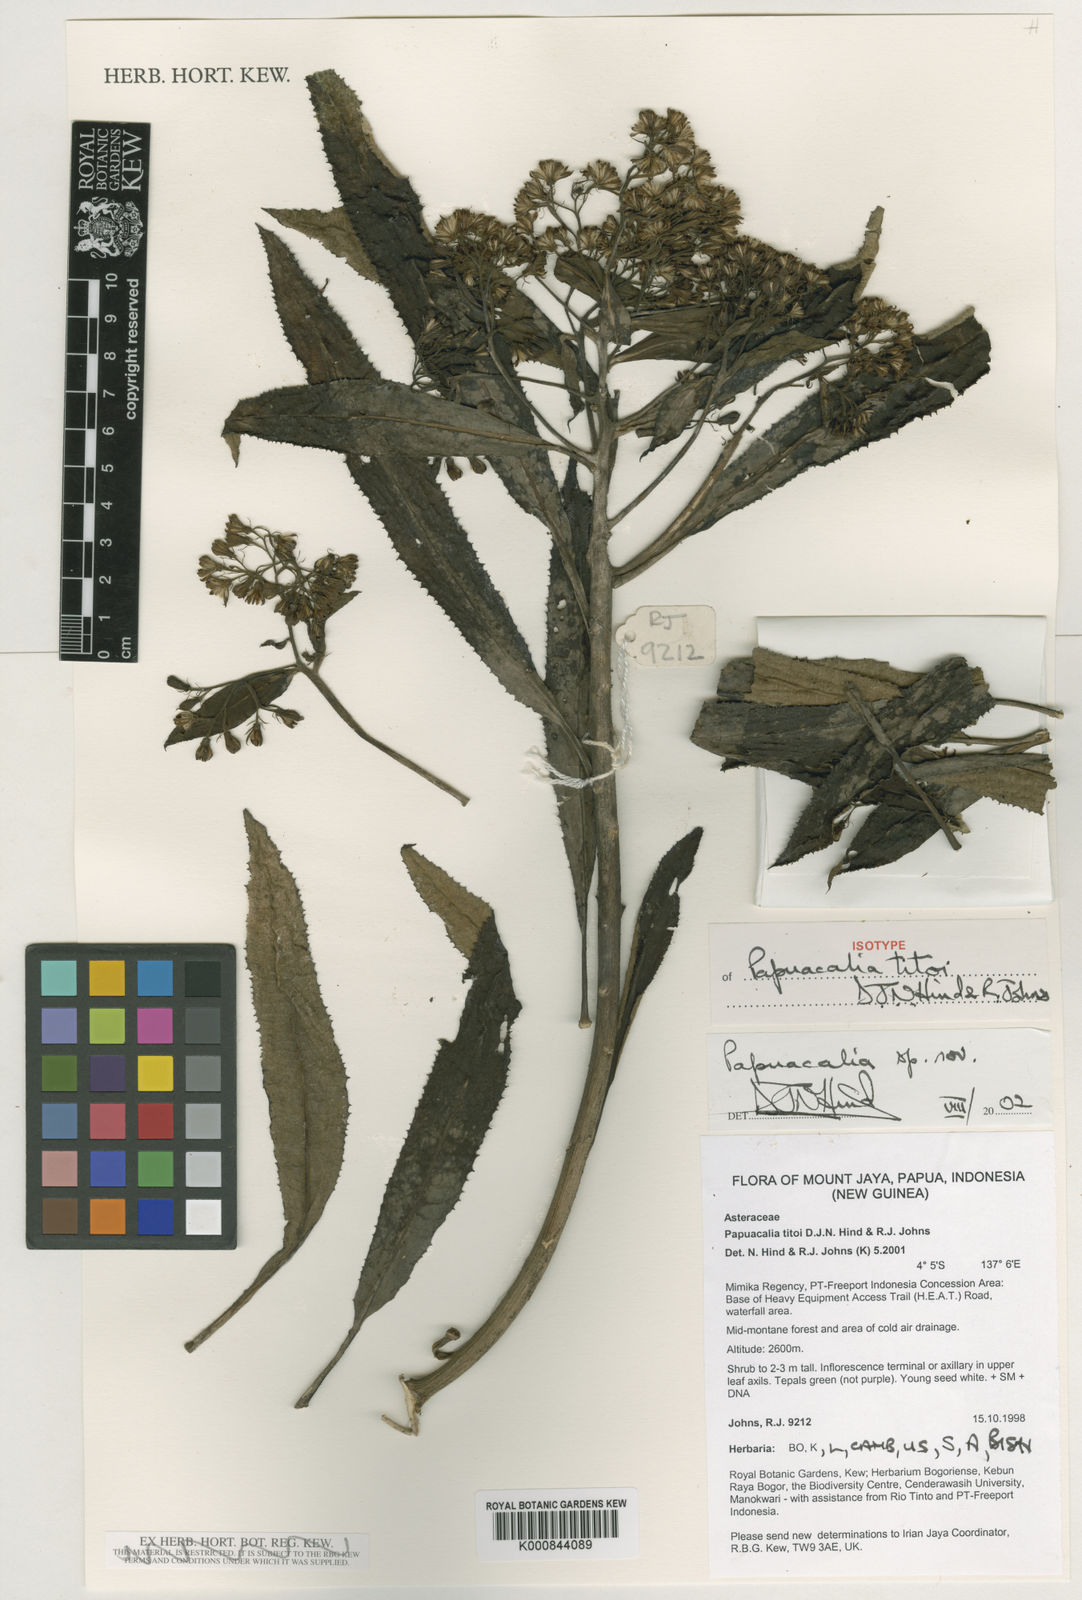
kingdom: Plantae
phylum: Tracheophyta
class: Magnoliopsida
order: Asterales
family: Asteraceae
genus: Papuacalia
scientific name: Papuacalia titoi
